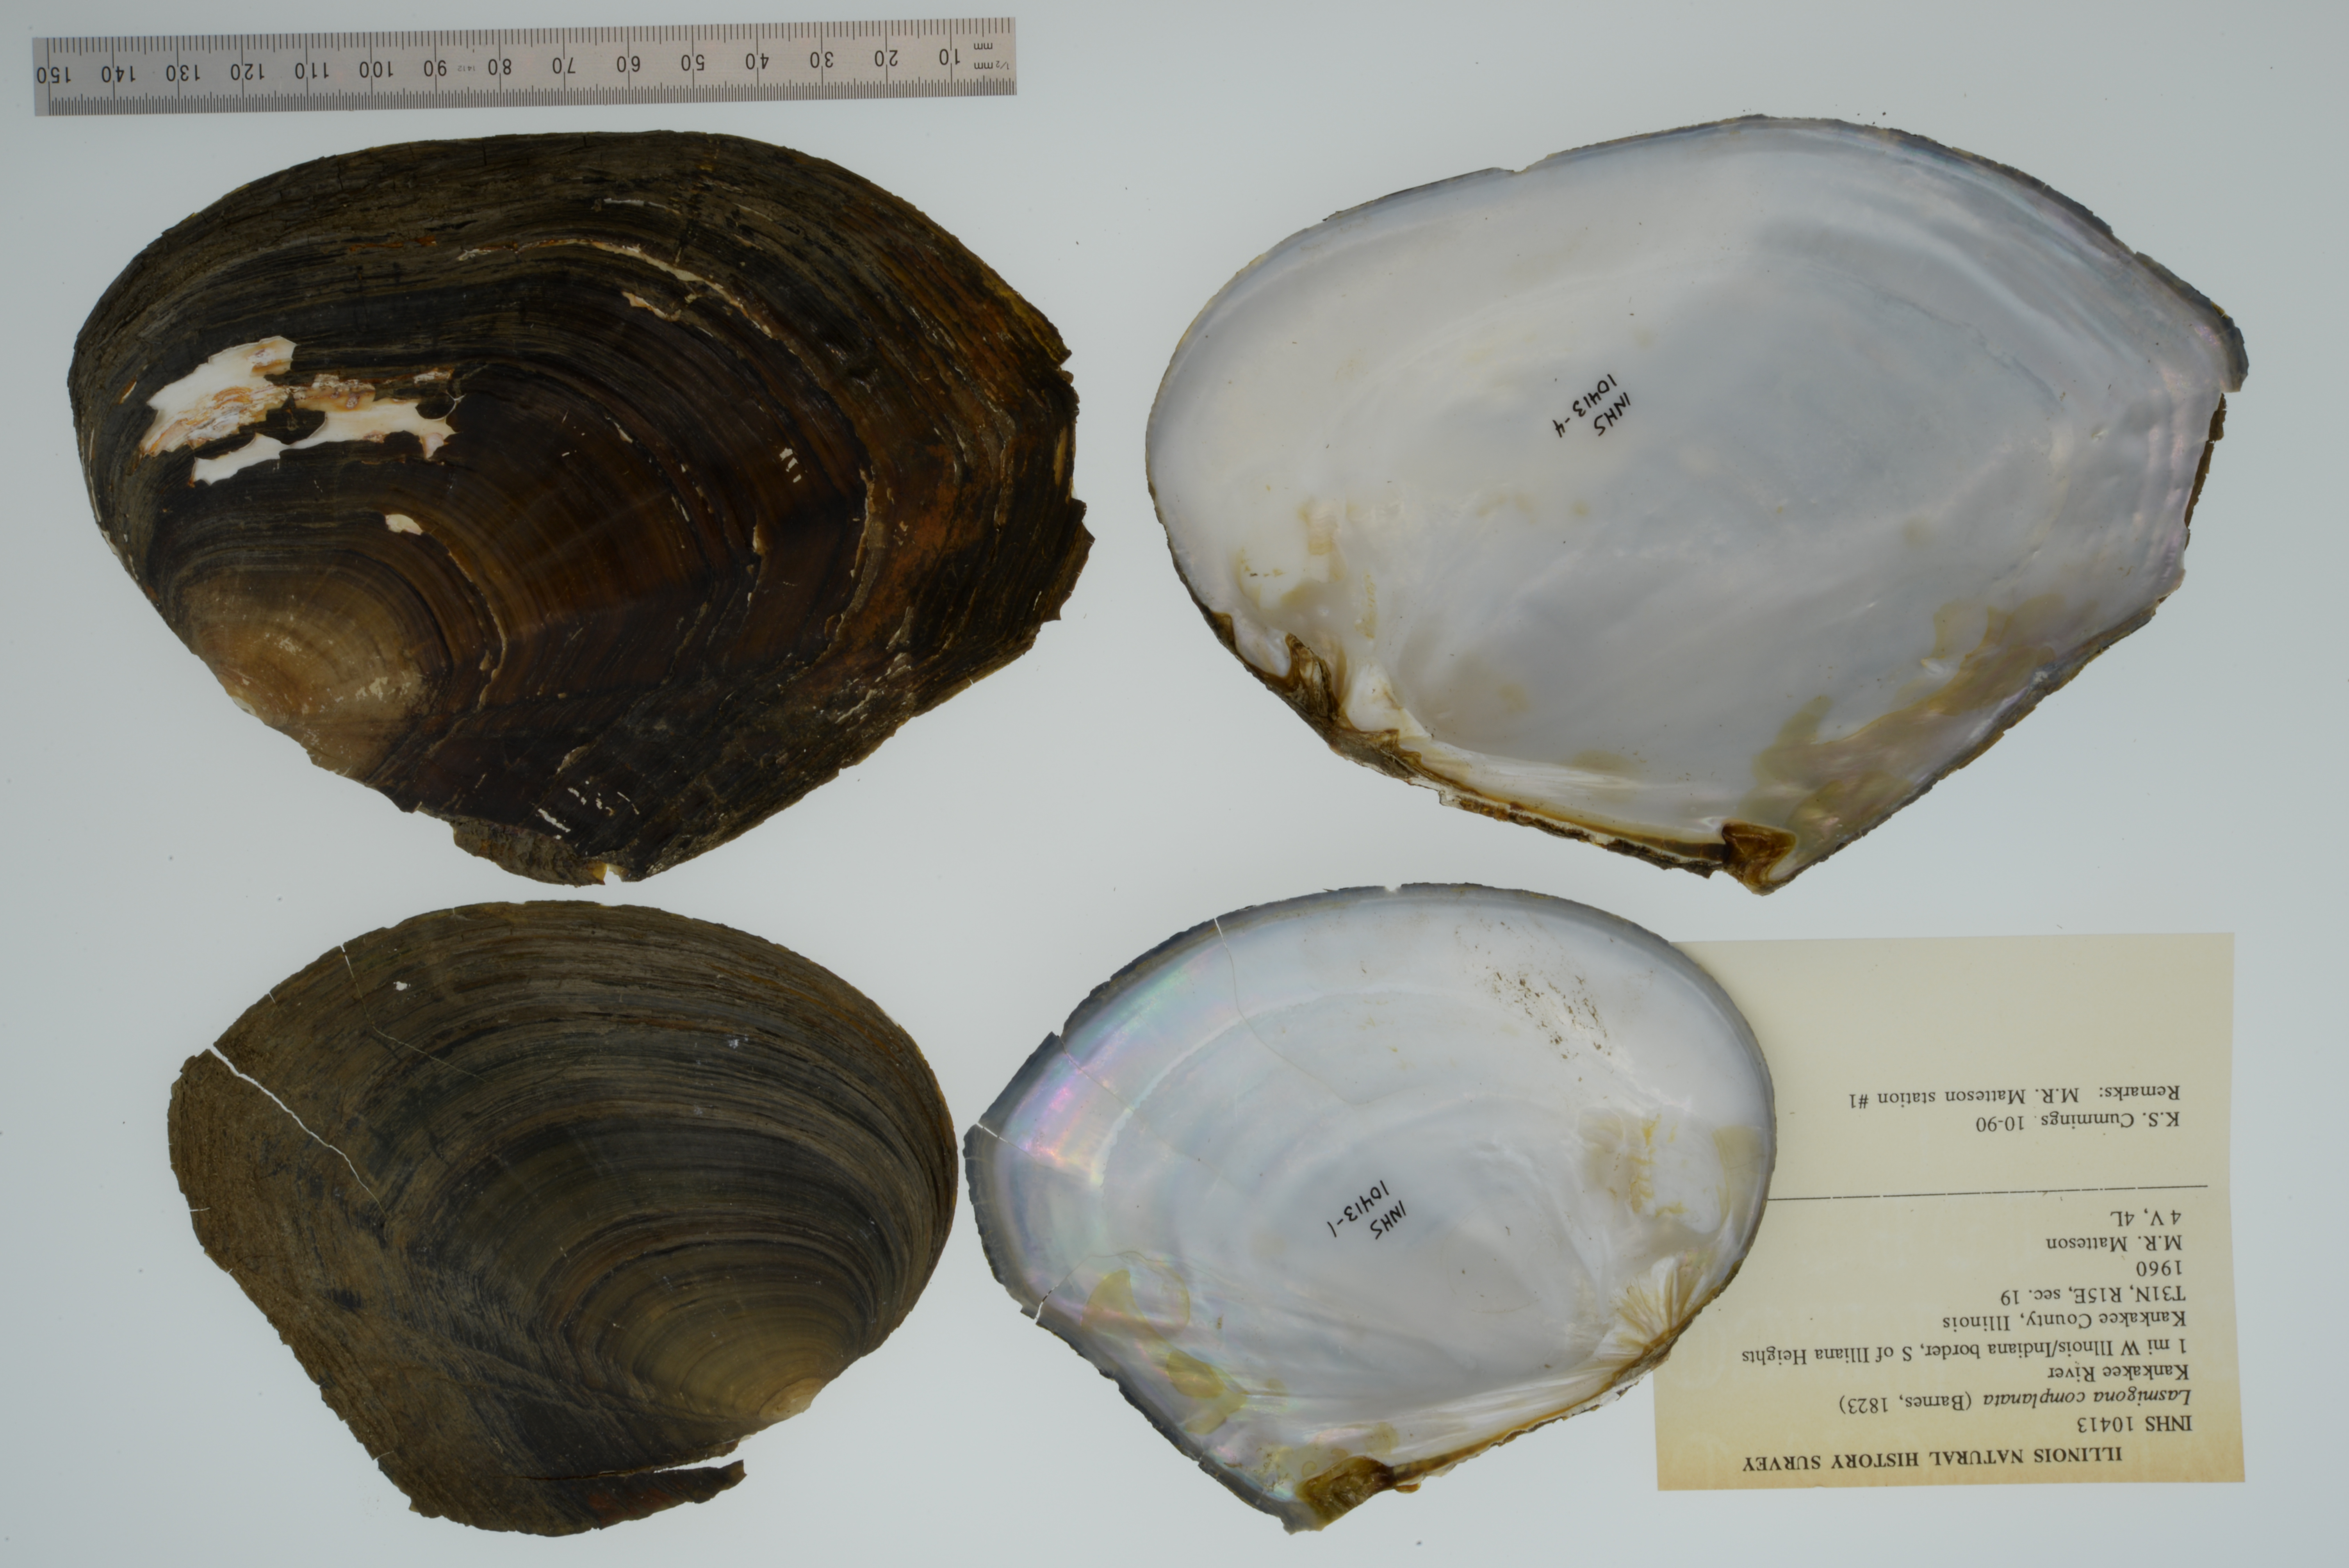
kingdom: Animalia
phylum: Mollusca
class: Bivalvia
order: Unionida
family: Unionidae
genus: Lasmigona
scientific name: Lasmigona complanata
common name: White heelsplitter
